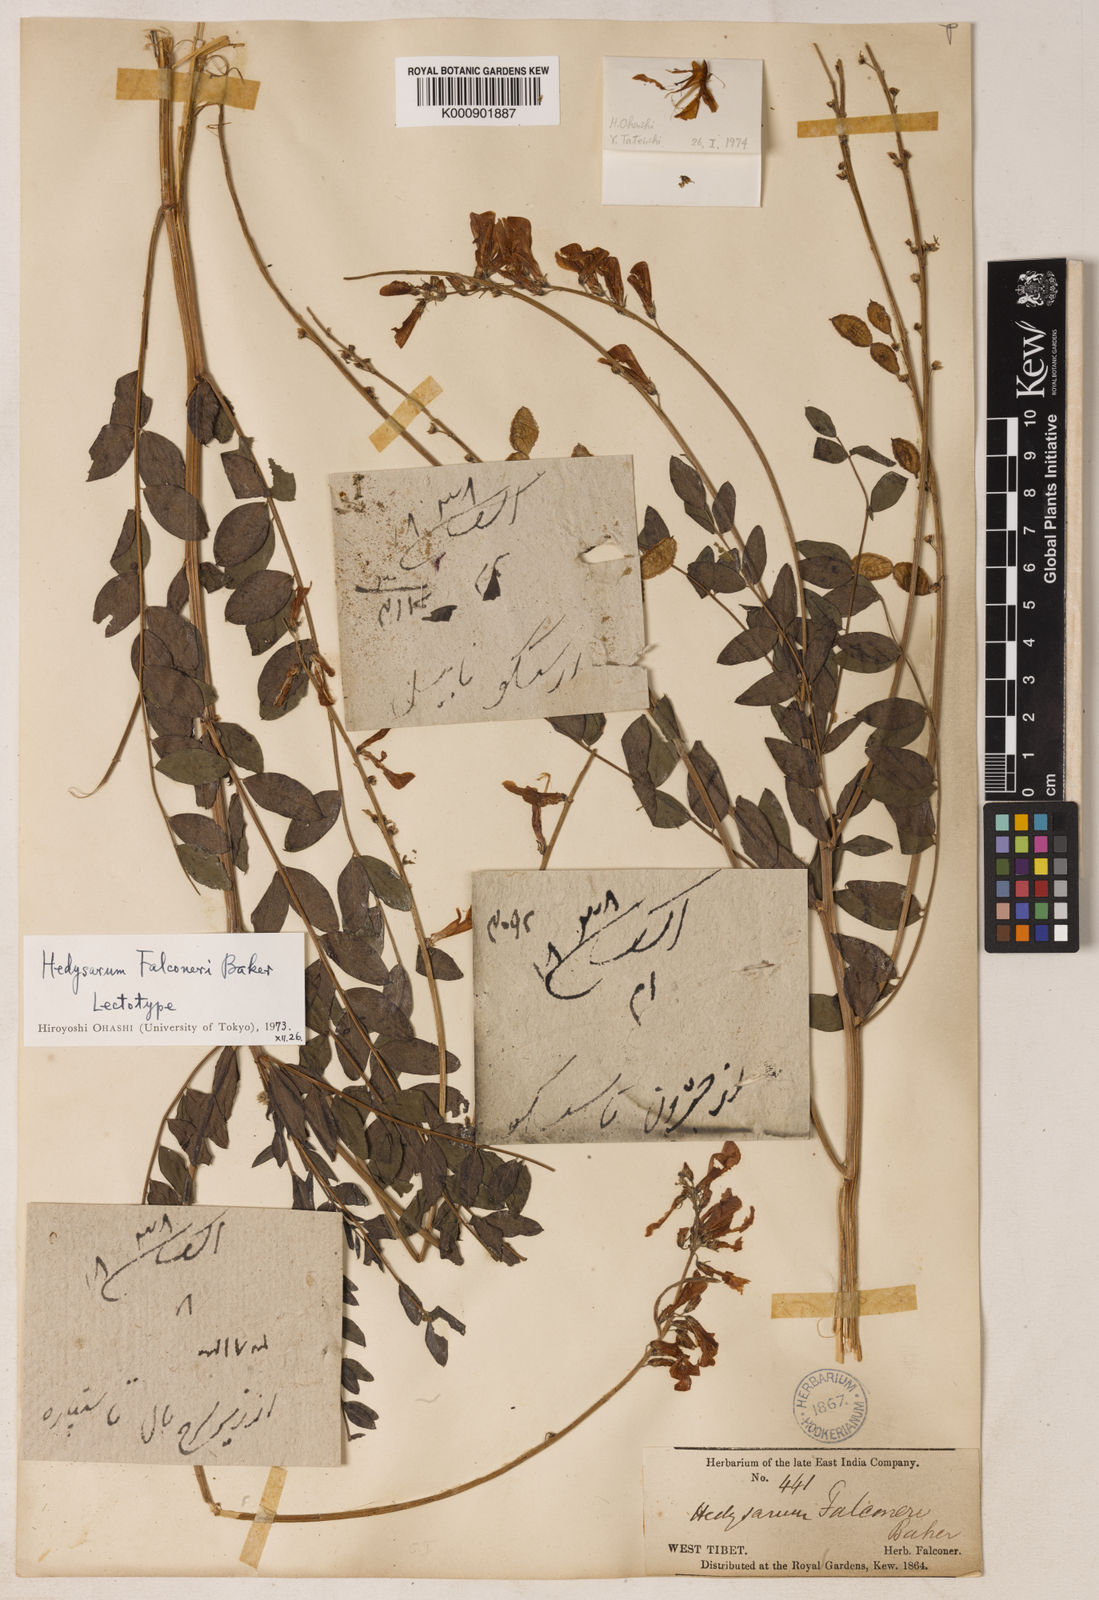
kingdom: Plantae
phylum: Tracheophyta
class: Magnoliopsida
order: Fabales
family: Fabaceae
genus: Hedysarum
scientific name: Hedysarum falconeri
